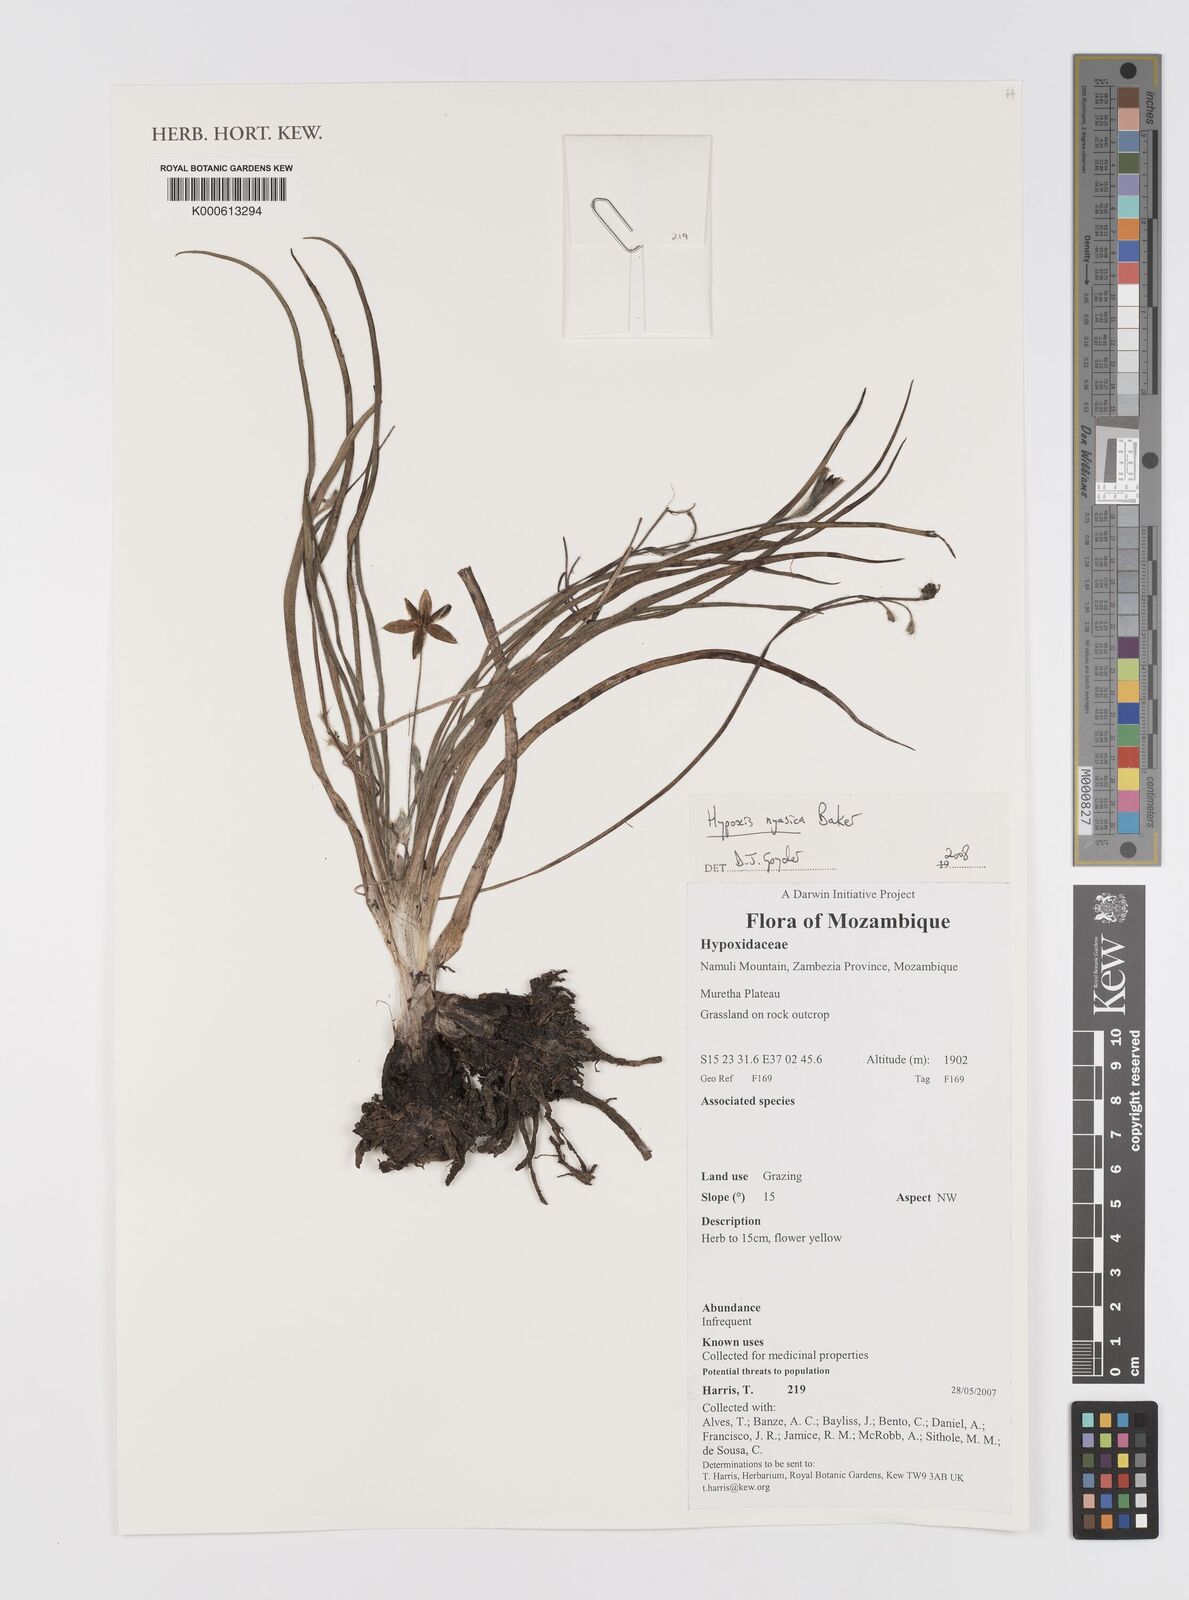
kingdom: Plantae
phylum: Tracheophyta
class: Liliopsida
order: Asparagales
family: Hypoxidaceae
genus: Hypoxis
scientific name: Hypoxis nyasica
